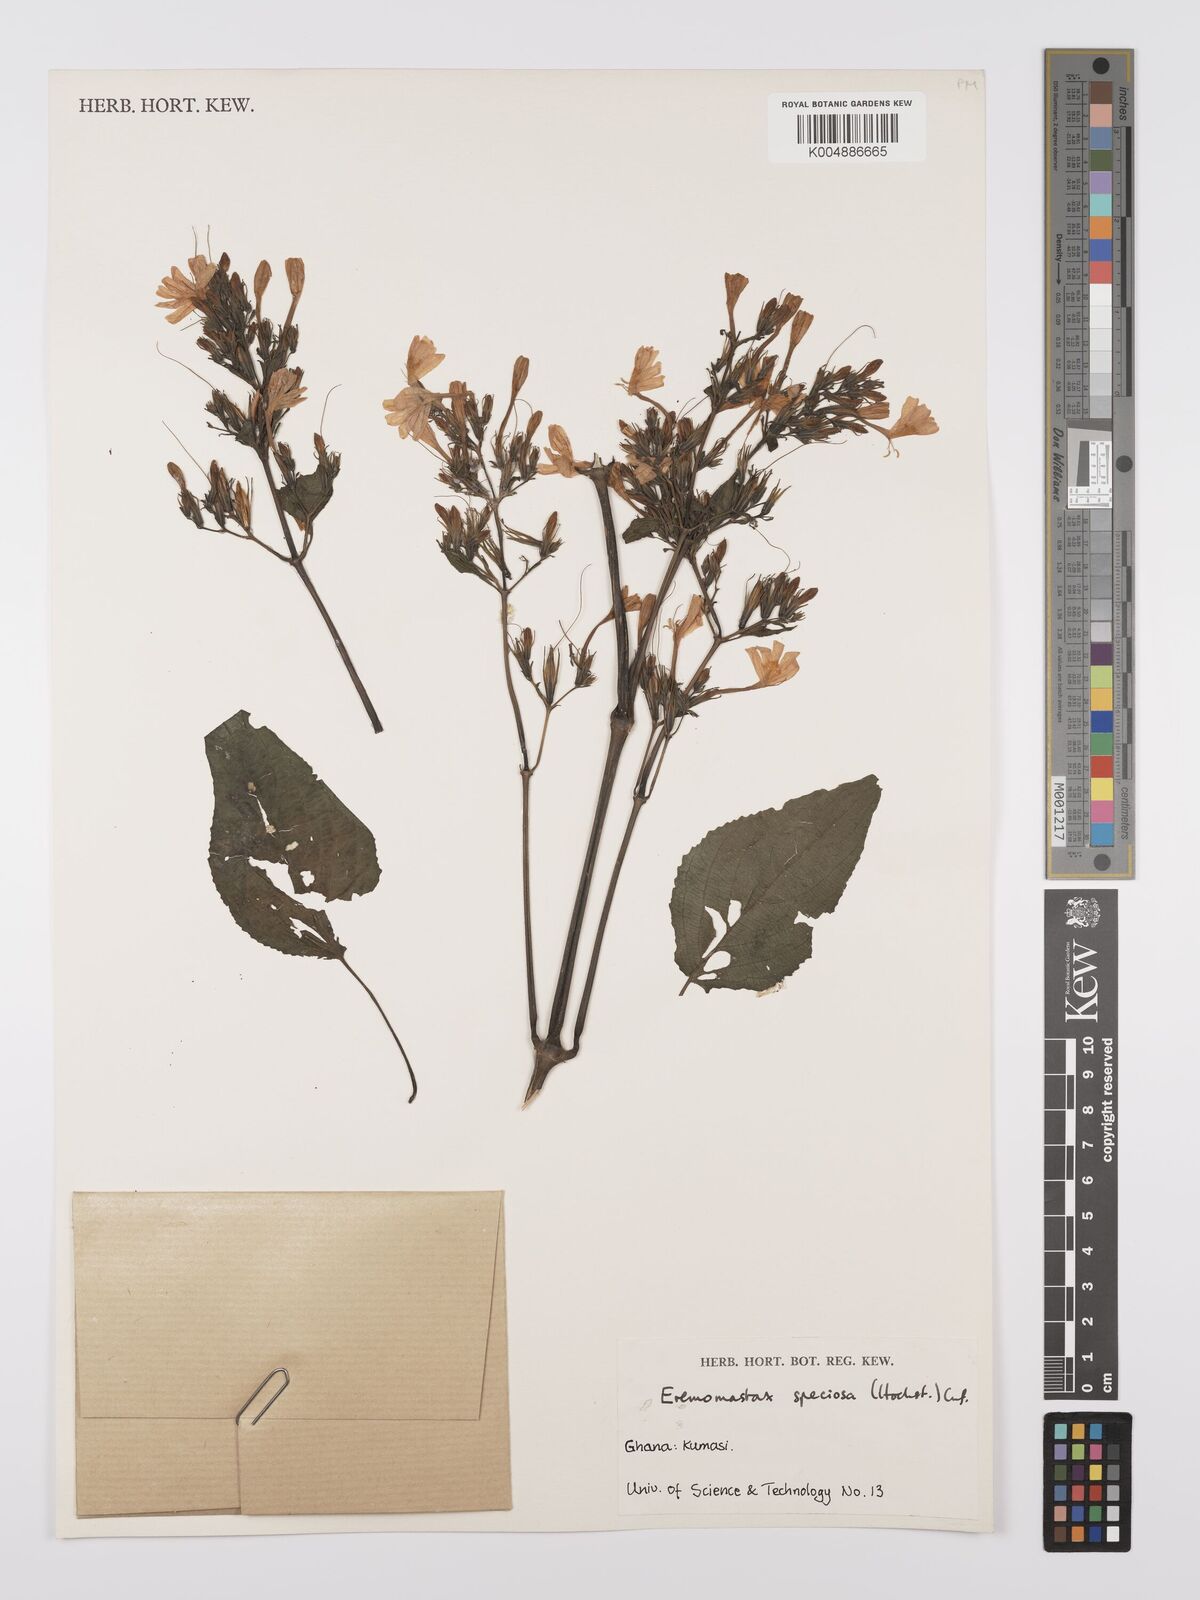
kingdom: Plantae
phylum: Tracheophyta
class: Magnoliopsida
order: Lamiales
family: Acanthaceae
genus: Eremomastax
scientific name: Eremomastax speciosa
